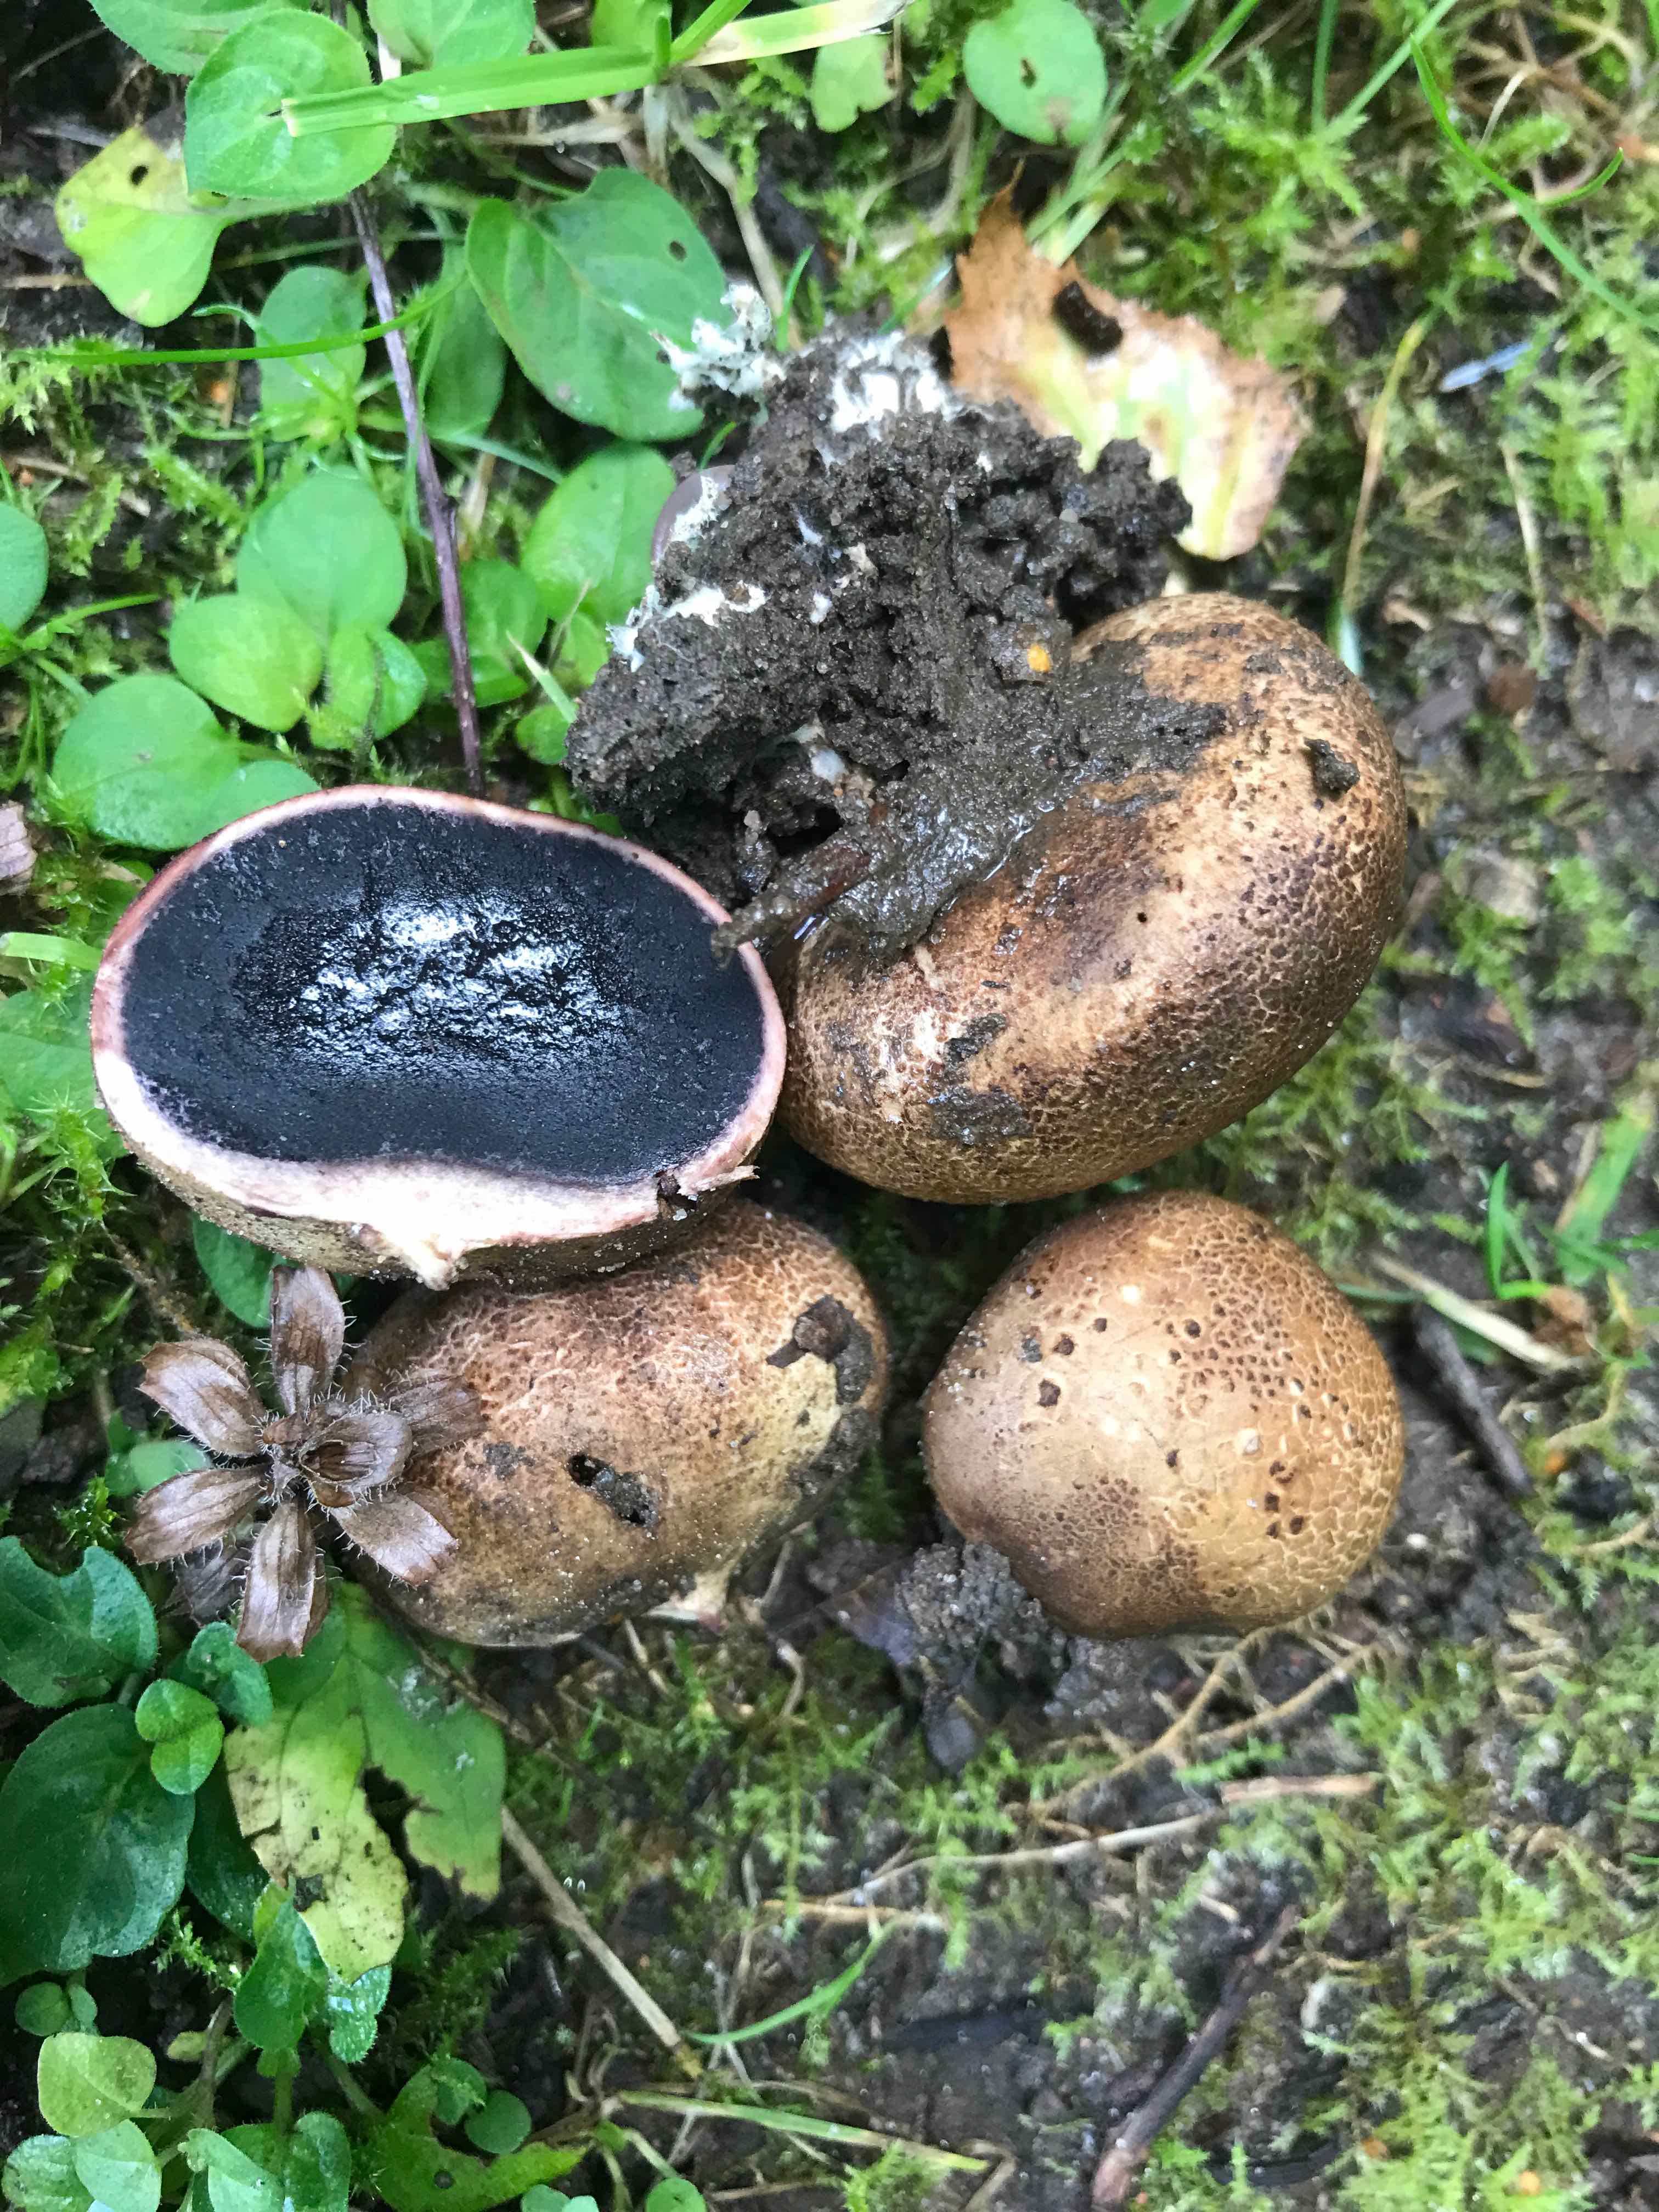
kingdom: Fungi
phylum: Basidiomycota
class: Agaricomycetes
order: Boletales
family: Sclerodermataceae
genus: Scleroderma
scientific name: Scleroderma bovista
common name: bovist-bruskbold
